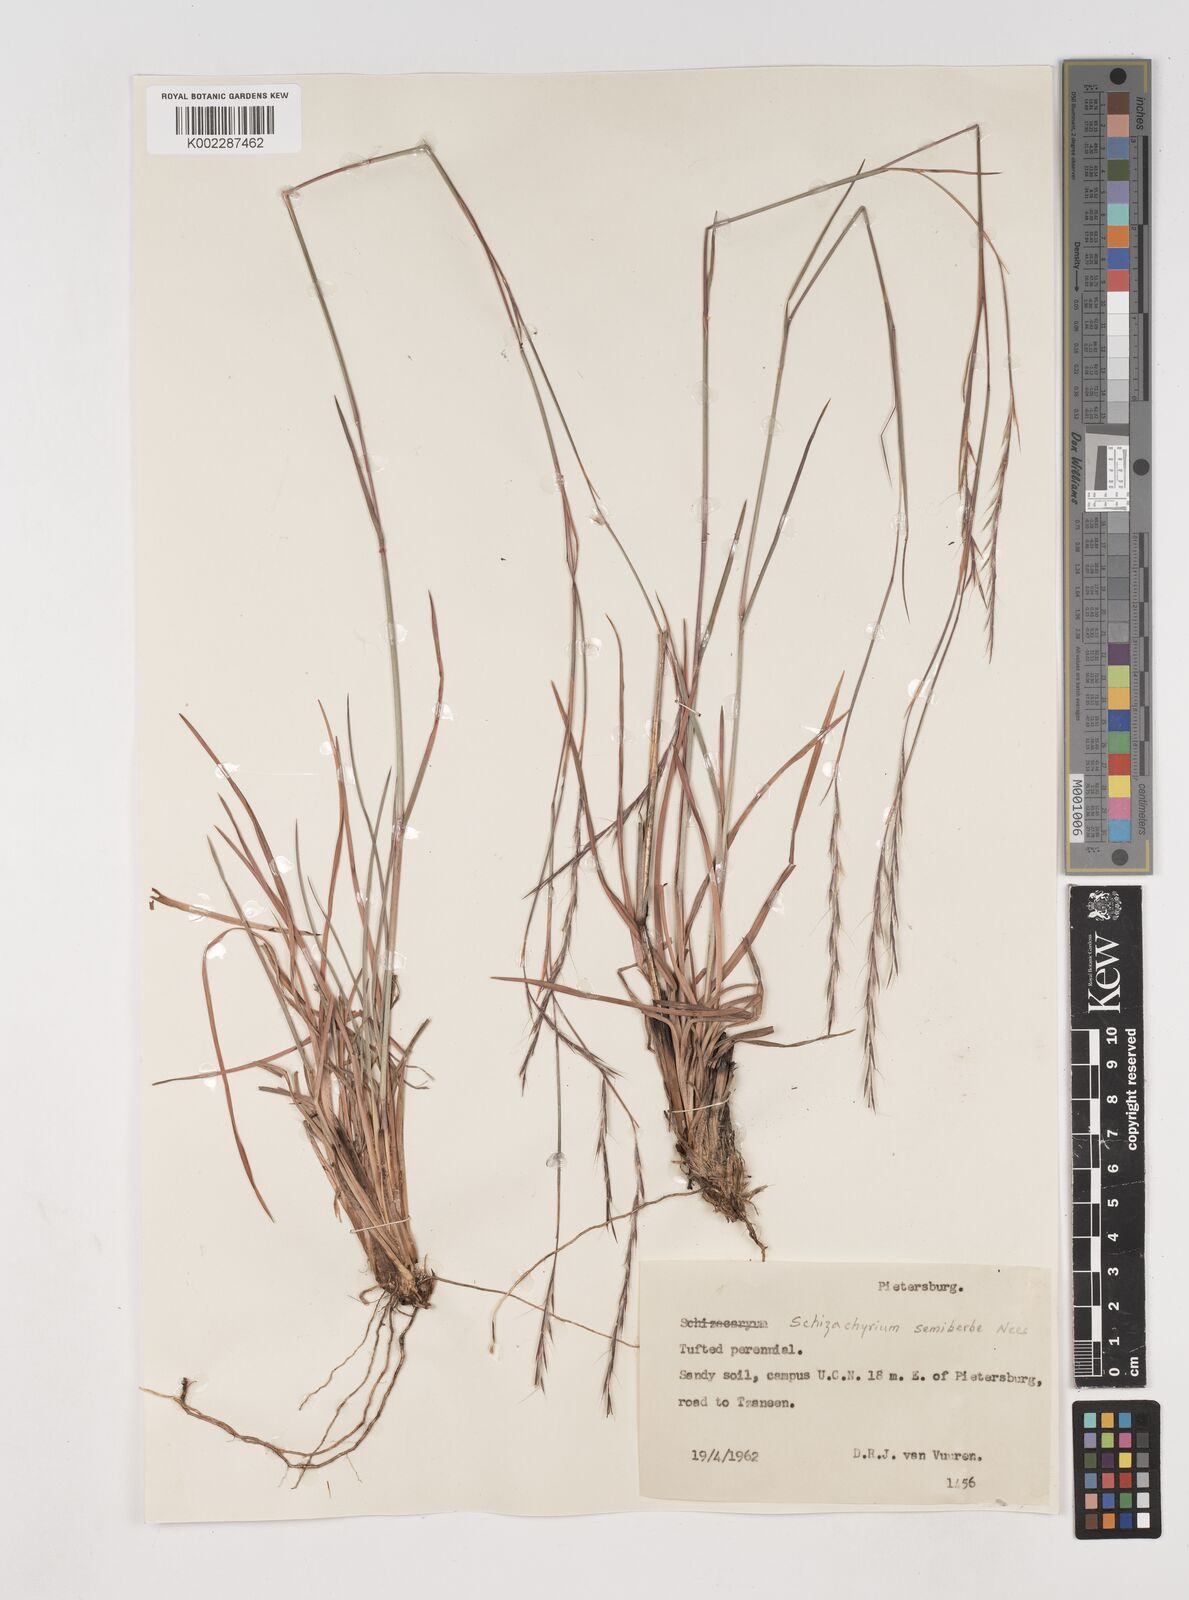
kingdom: Plantae
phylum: Tracheophyta
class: Liliopsida
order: Poales
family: Poaceae
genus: Schizachyrium
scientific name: Schizachyrium sanguineum
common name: Crimson bluestem
